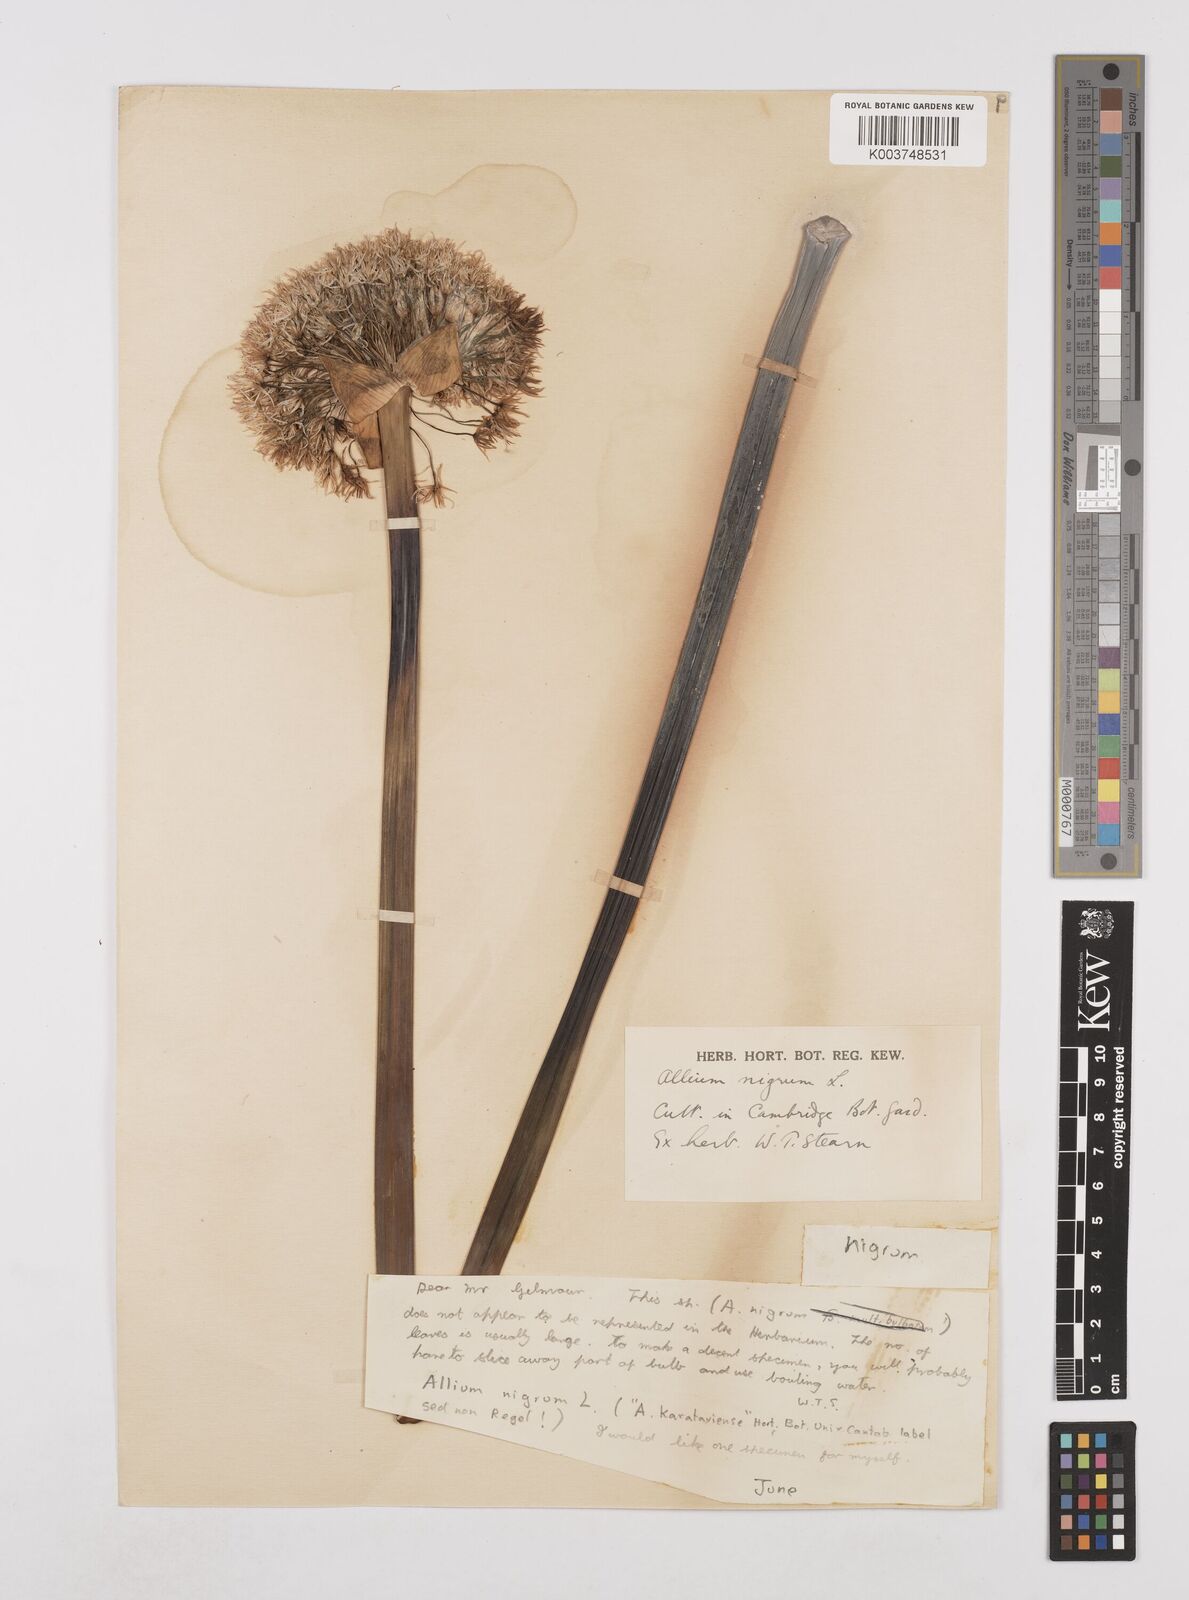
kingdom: Plantae
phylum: Tracheophyta
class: Liliopsida
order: Asparagales
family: Amaryllidaceae
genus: Allium
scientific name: Allium nigrum
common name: Black garlic
